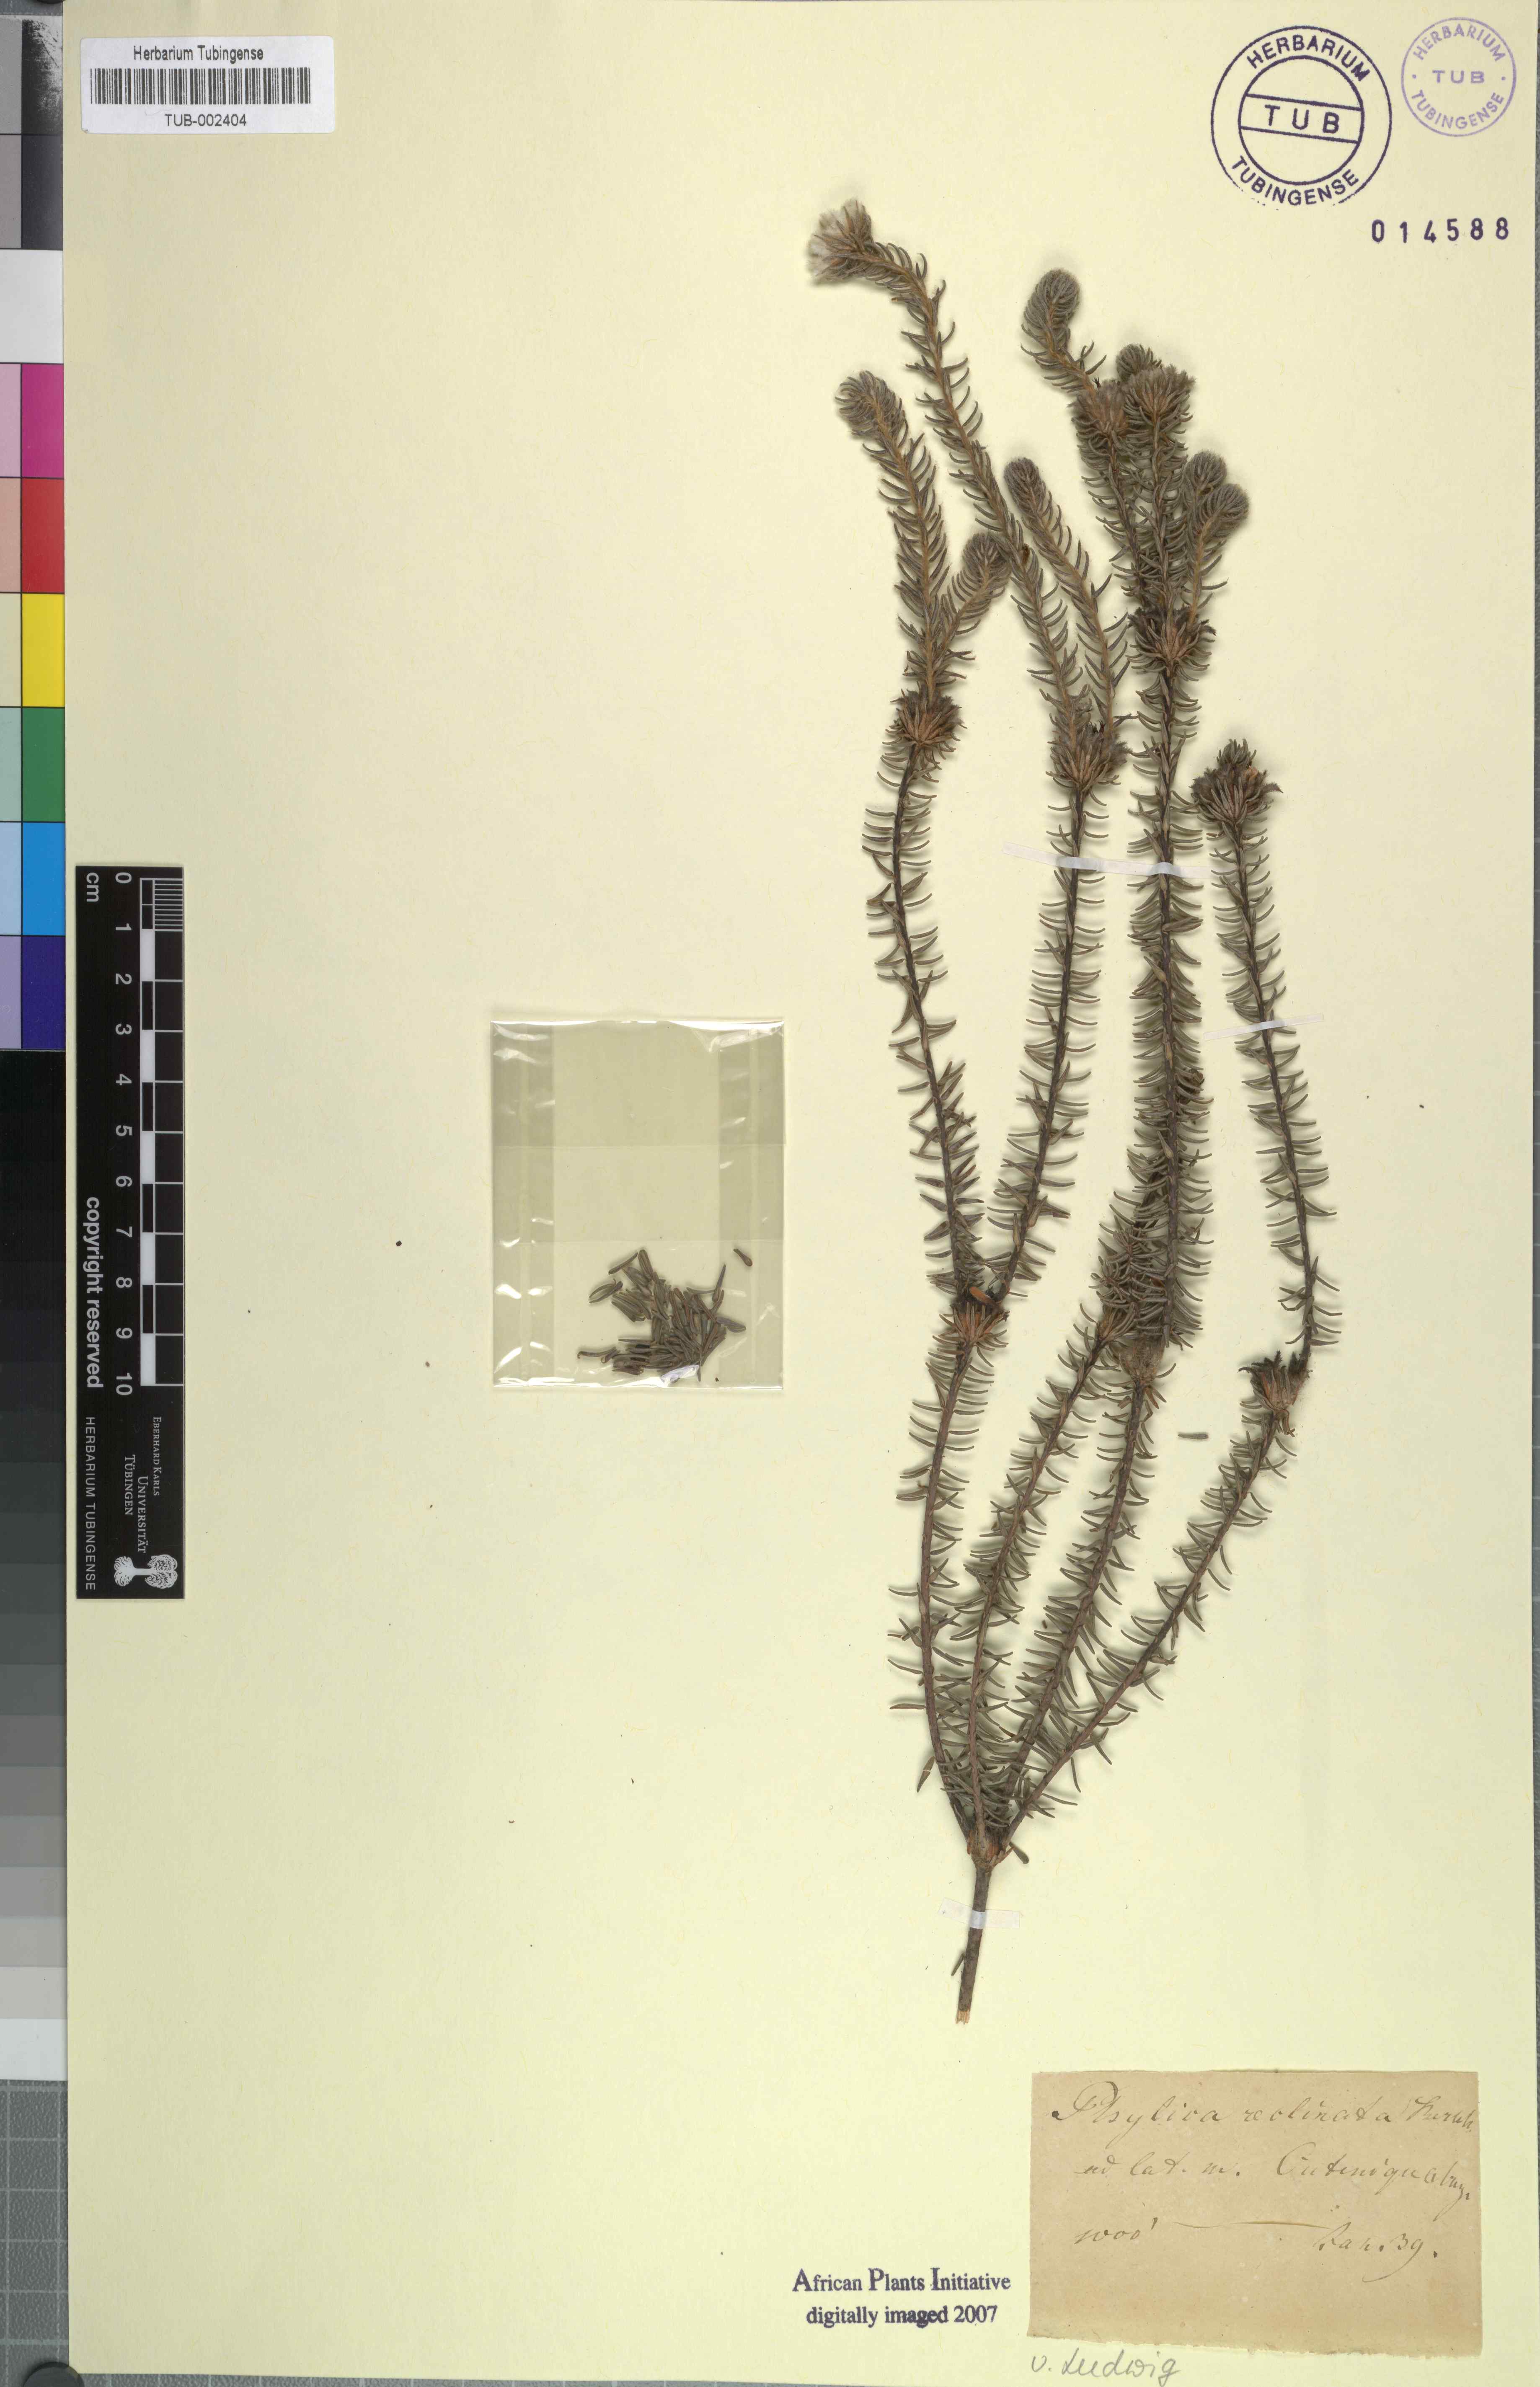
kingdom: Plantae
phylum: Tracheophyta
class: Magnoliopsida
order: Rosales
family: Rhamnaceae
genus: Phylica
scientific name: Phylica
